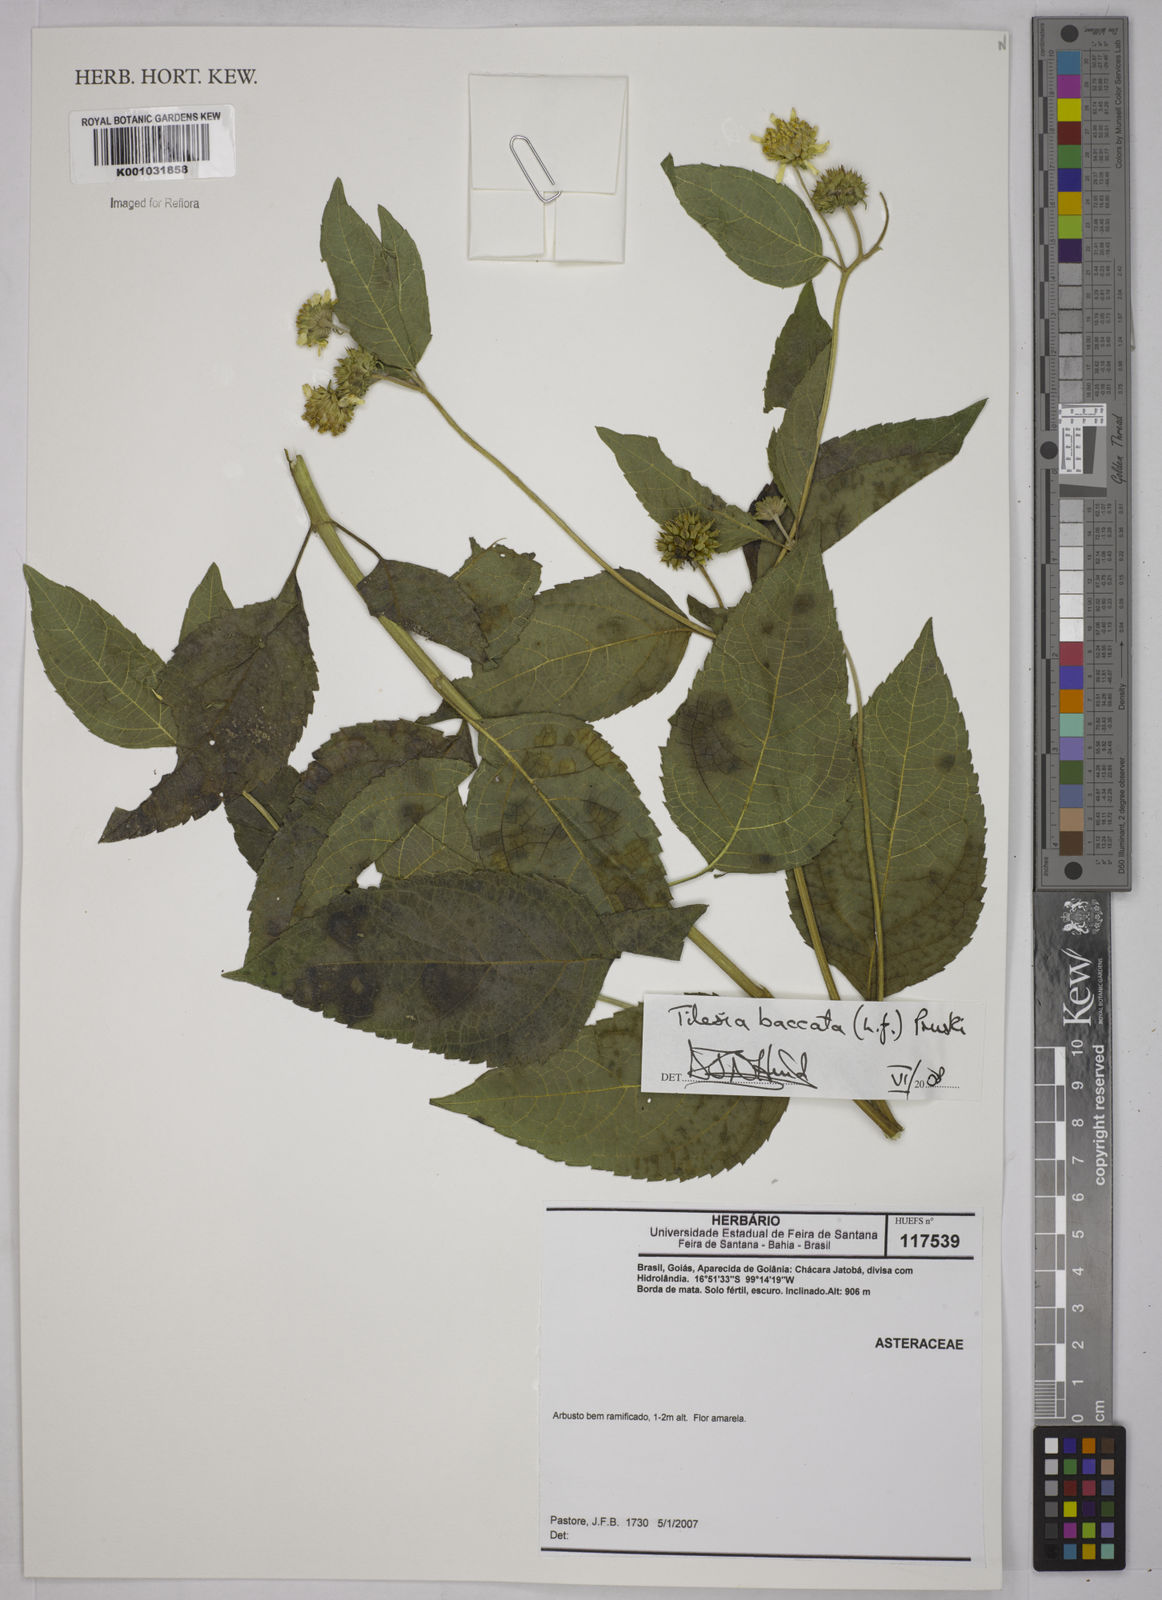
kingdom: Plantae
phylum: Tracheophyta
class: Magnoliopsida
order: Asterales
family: Asteraceae
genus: Tilesia
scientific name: Tilesia baccata
